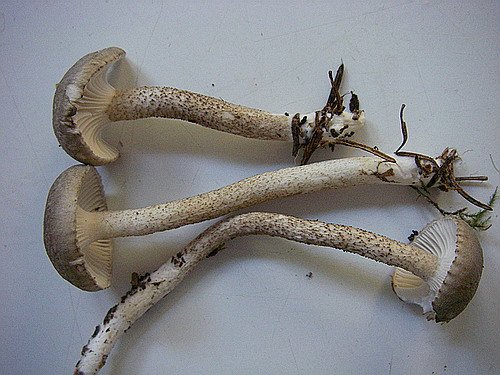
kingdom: Fungi
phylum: Basidiomycota
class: Agaricomycetes
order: Agaricales
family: Hygrophoraceae
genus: Hygrophorus
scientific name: Hygrophorus pustulatus
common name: mørkprikket sneglehat
